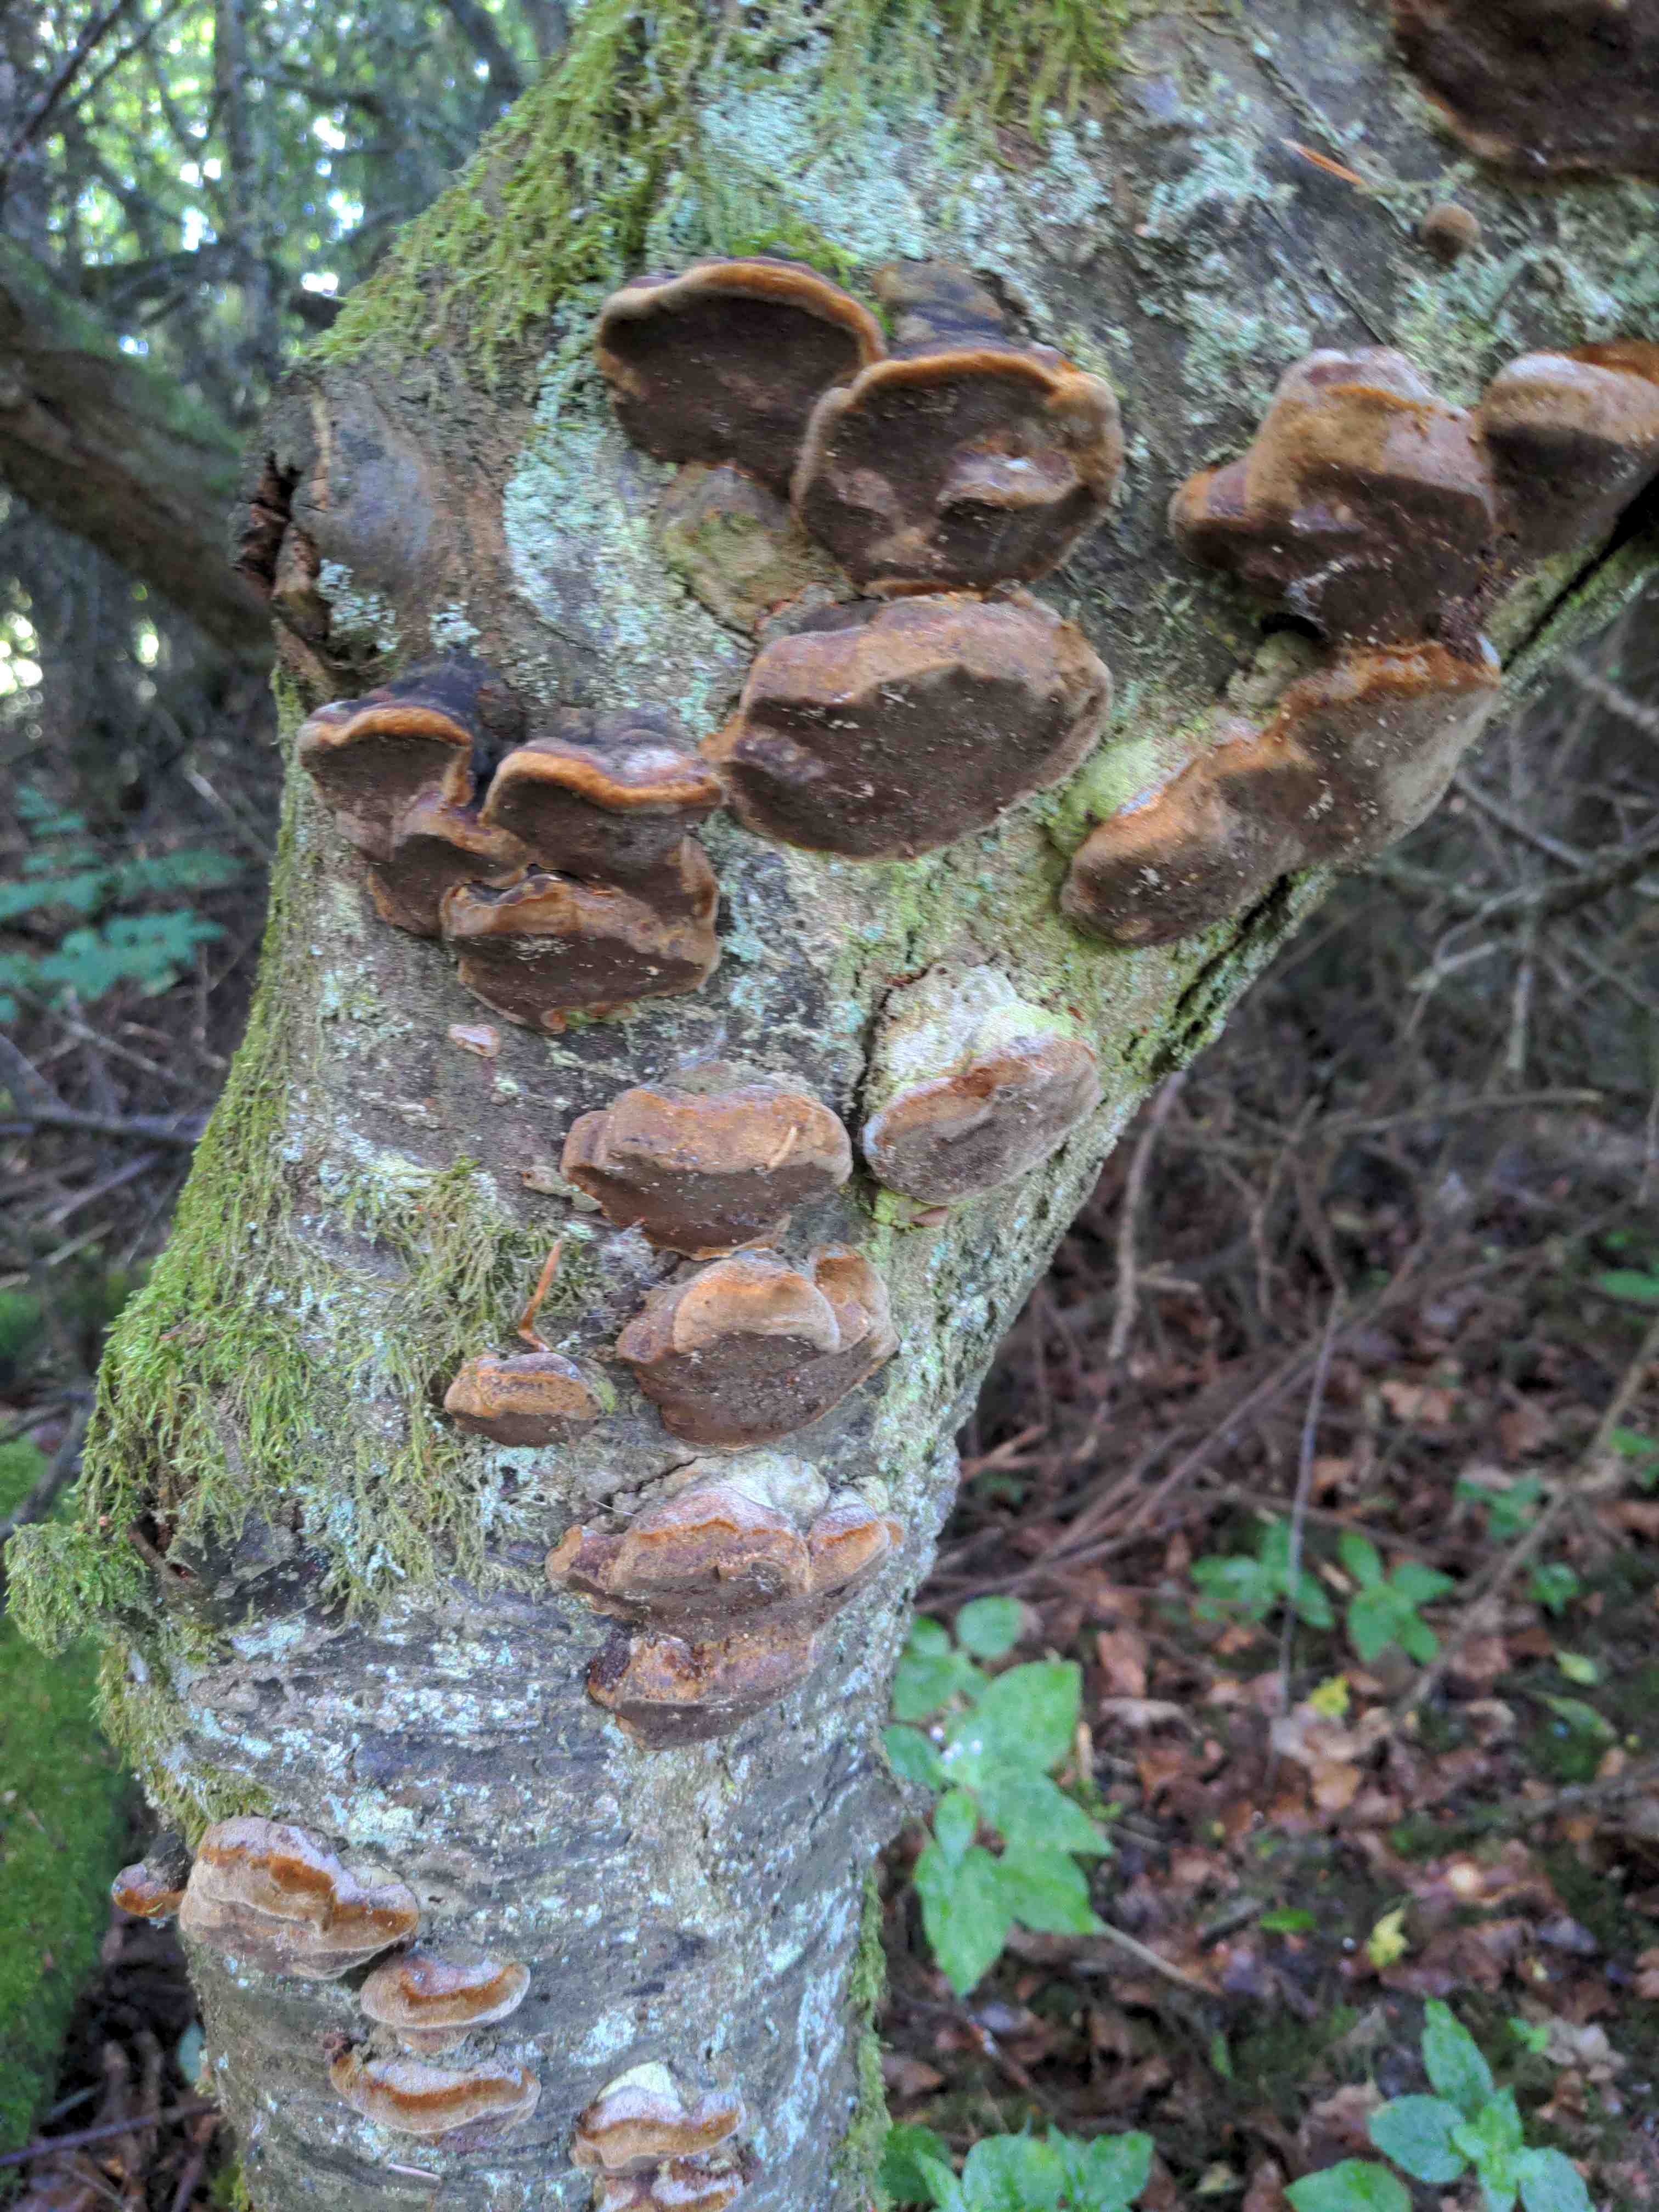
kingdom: Fungi
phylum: Basidiomycota
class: Agaricomycetes
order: Hymenochaetales
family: Hymenochaetaceae
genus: Phellinus
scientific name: Phellinus pomaceus
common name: blomme-ildporesvamp
